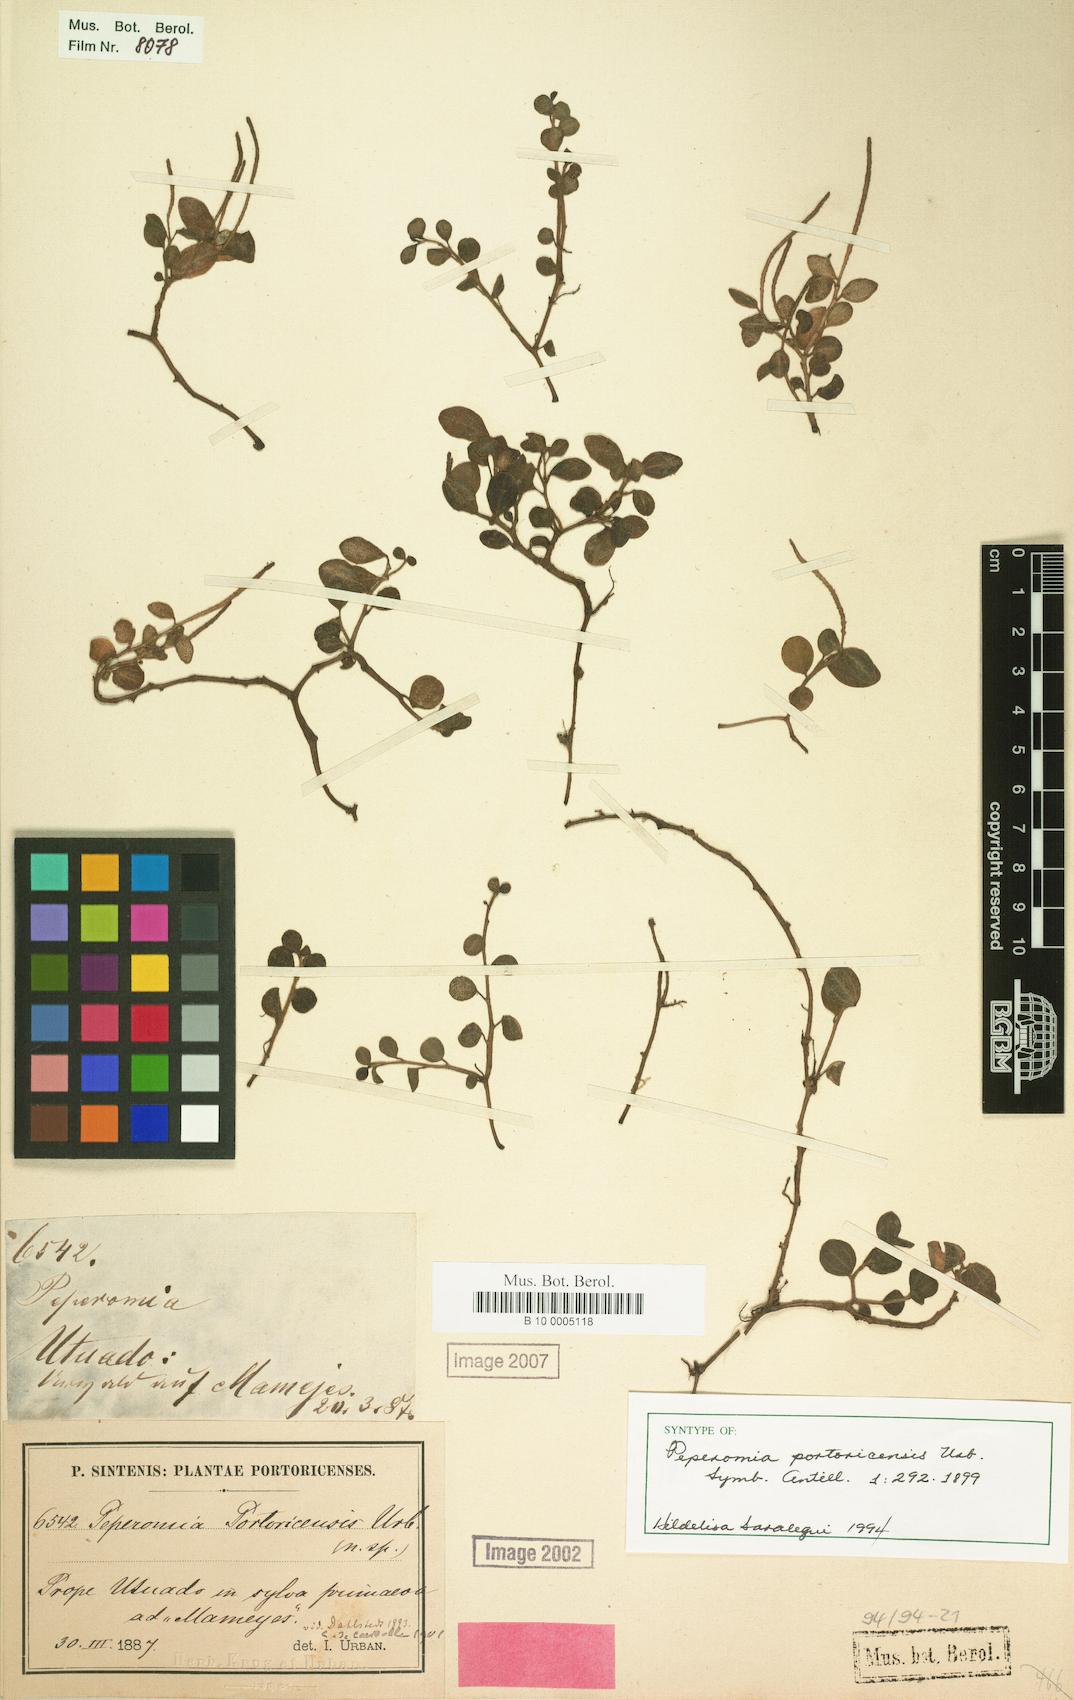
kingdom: Plantae
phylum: Tracheophyta
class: Magnoliopsida
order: Piperales
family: Piperaceae
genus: Peperomia
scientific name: Peperomia portoricensis
